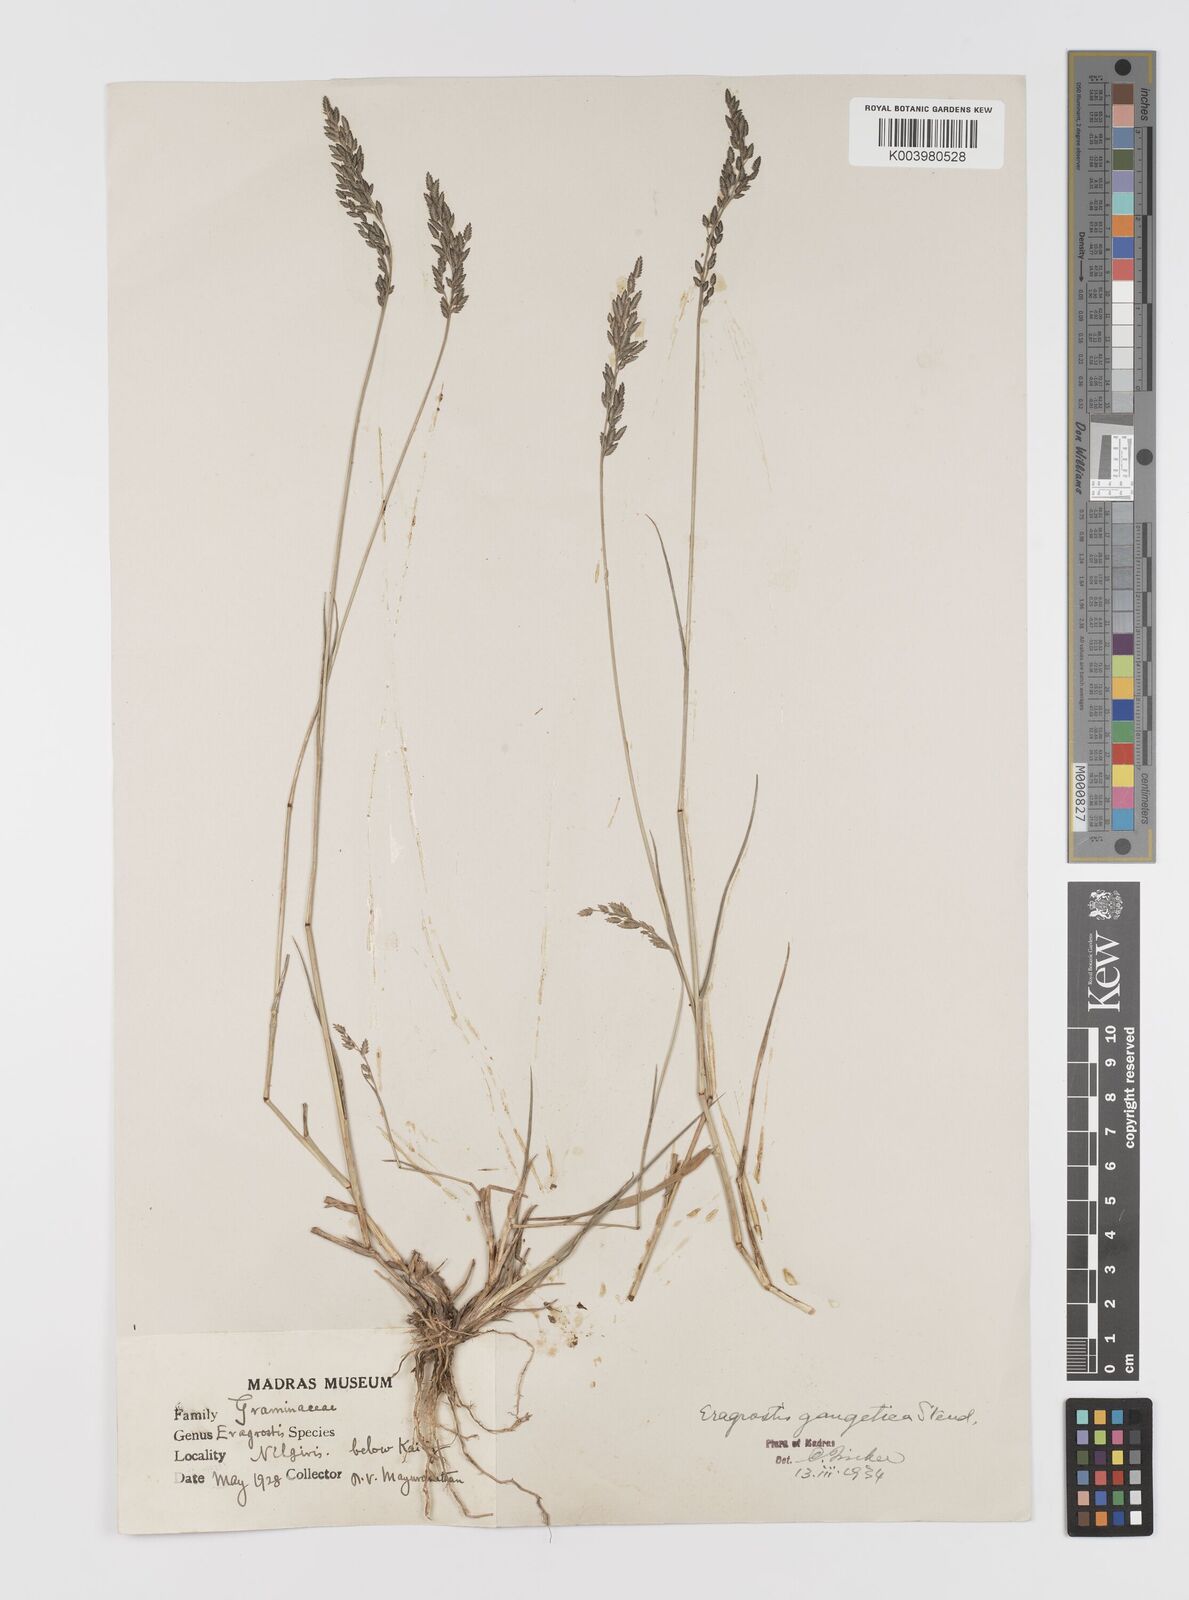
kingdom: Plantae
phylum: Tracheophyta
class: Liliopsida
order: Poales
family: Poaceae
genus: Eragrostis
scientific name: Eragrostis
